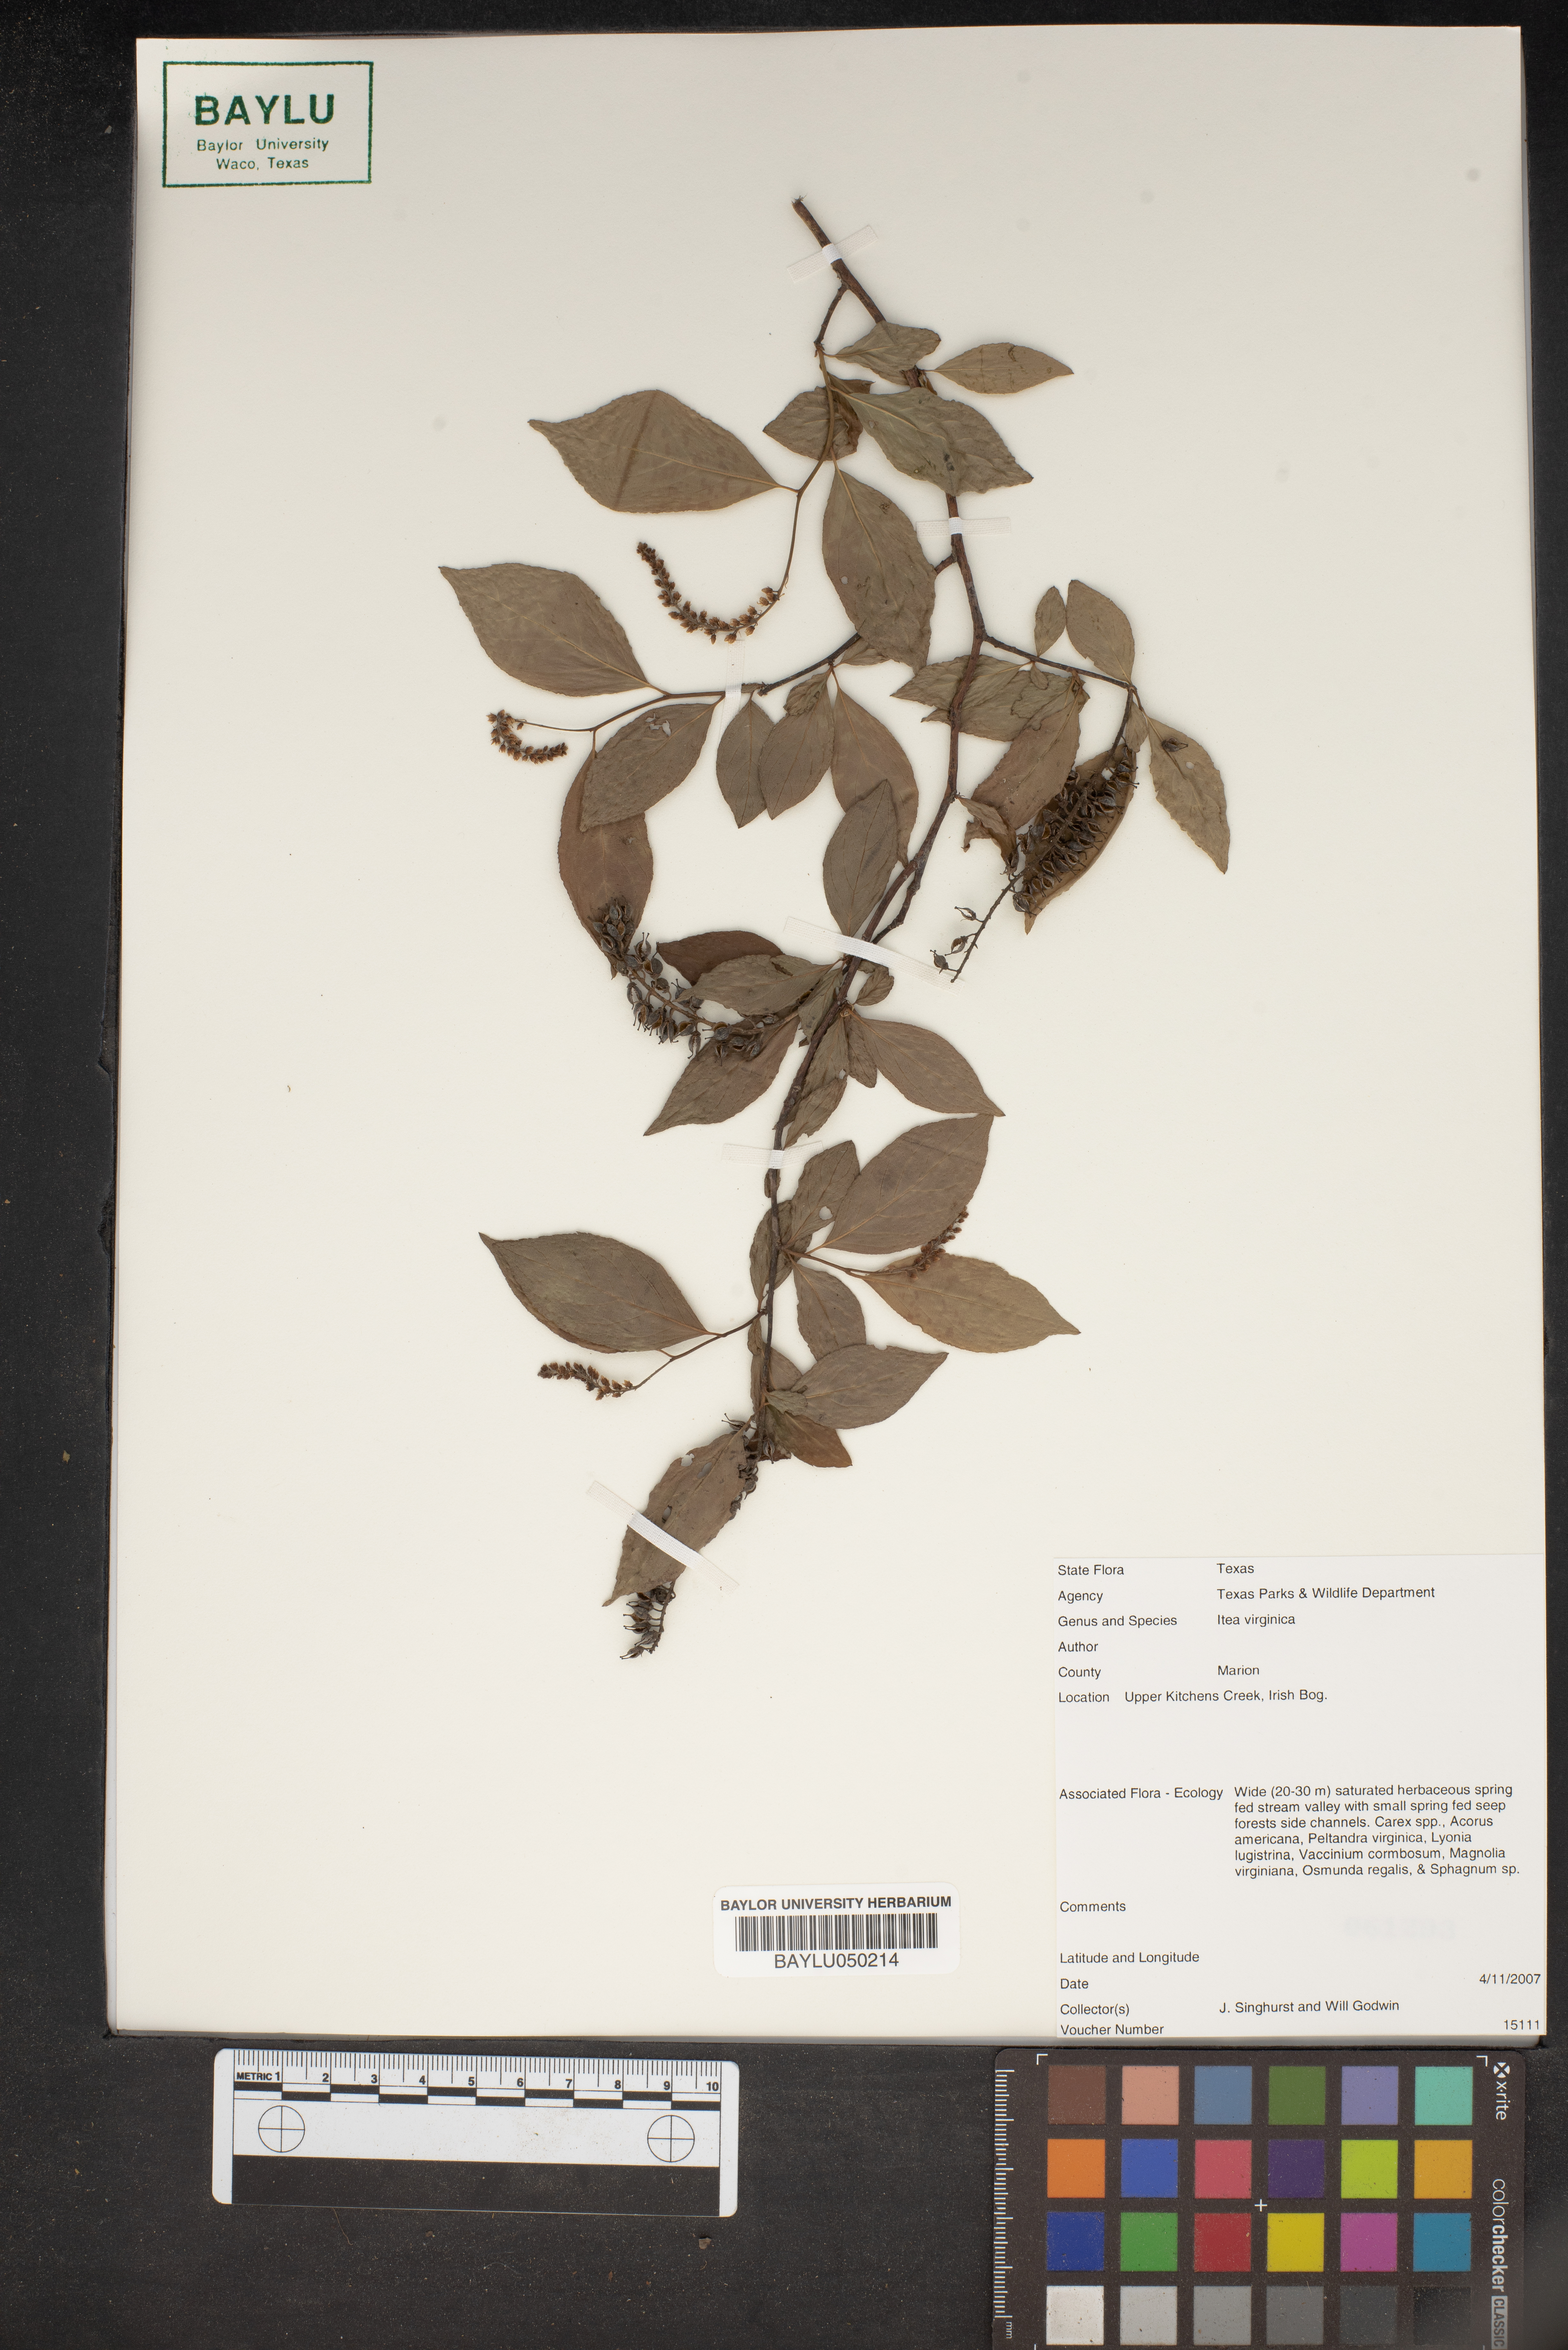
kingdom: Plantae
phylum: Tracheophyta
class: Magnoliopsida
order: Saxifragales
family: Iteaceae
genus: Itea
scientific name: Itea virginica
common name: Sweetspire
